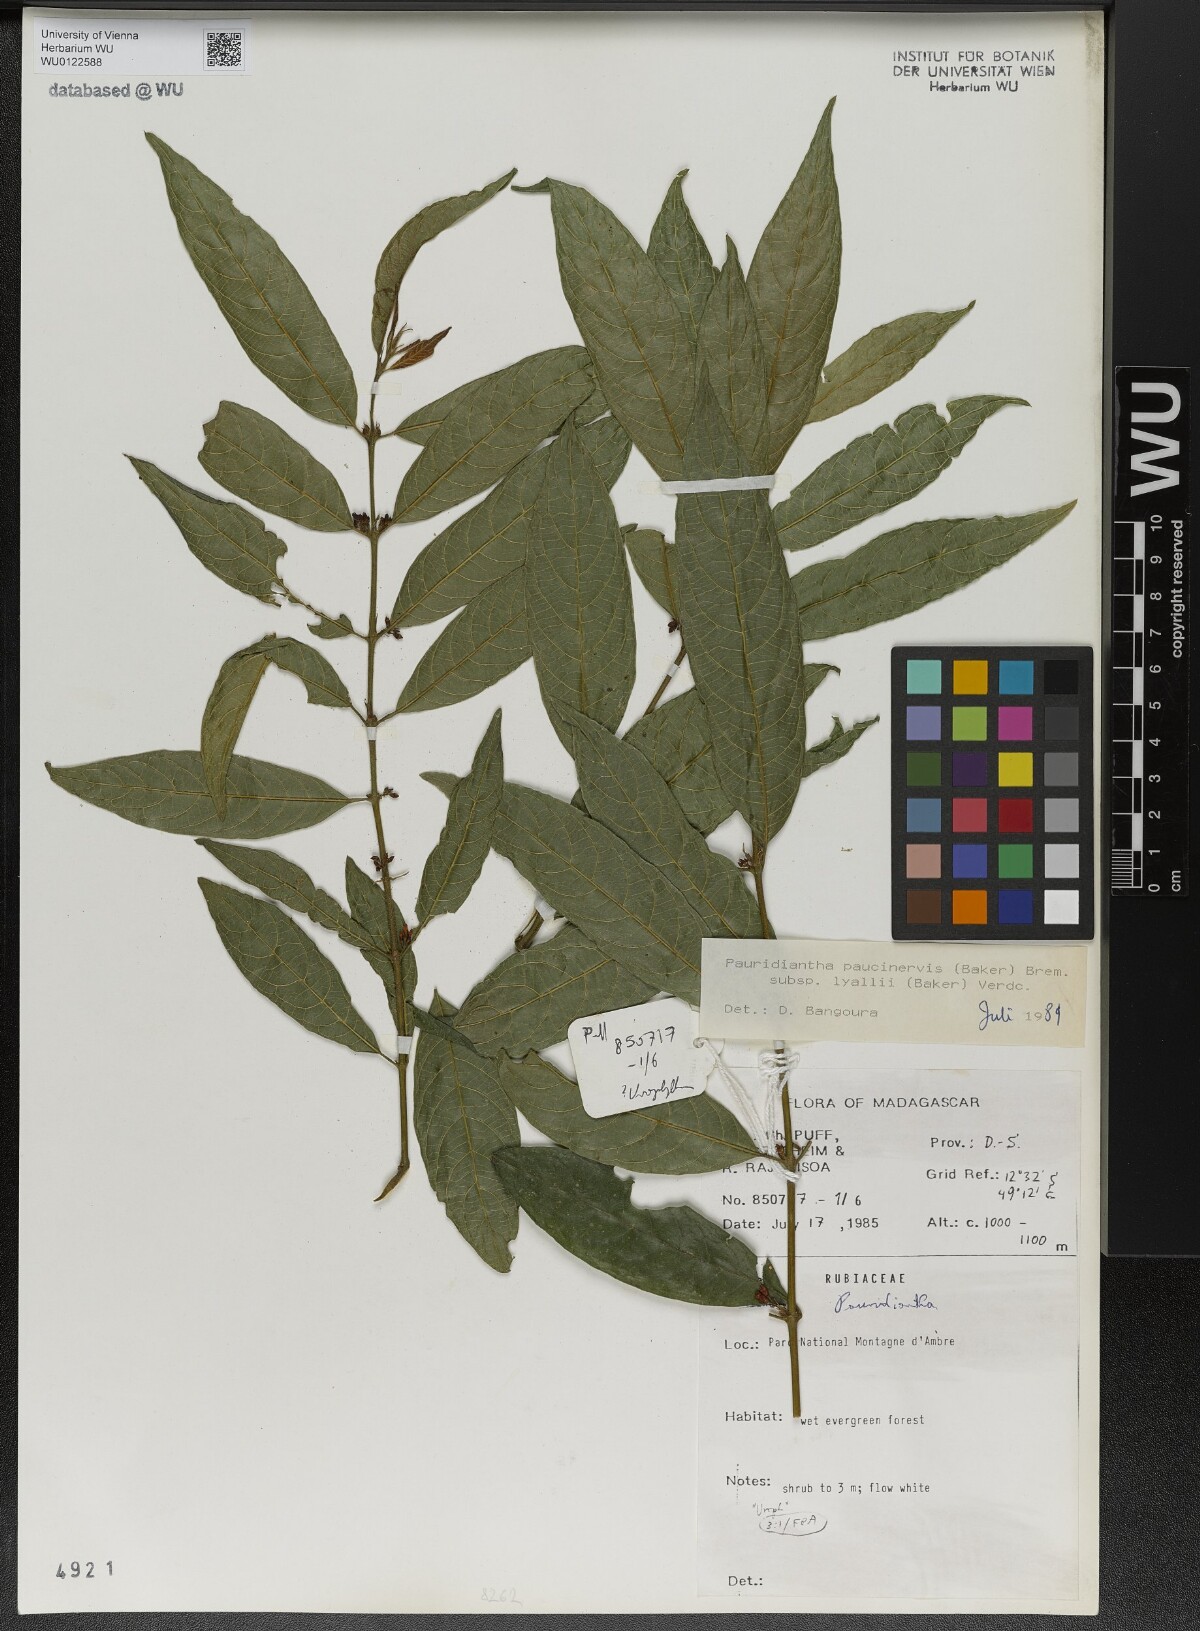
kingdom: Plantae
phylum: Tracheophyta
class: Magnoliopsida
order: Gentianales
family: Rubiaceae
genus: Pauridiantha
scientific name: Pauridiantha paucinervis
